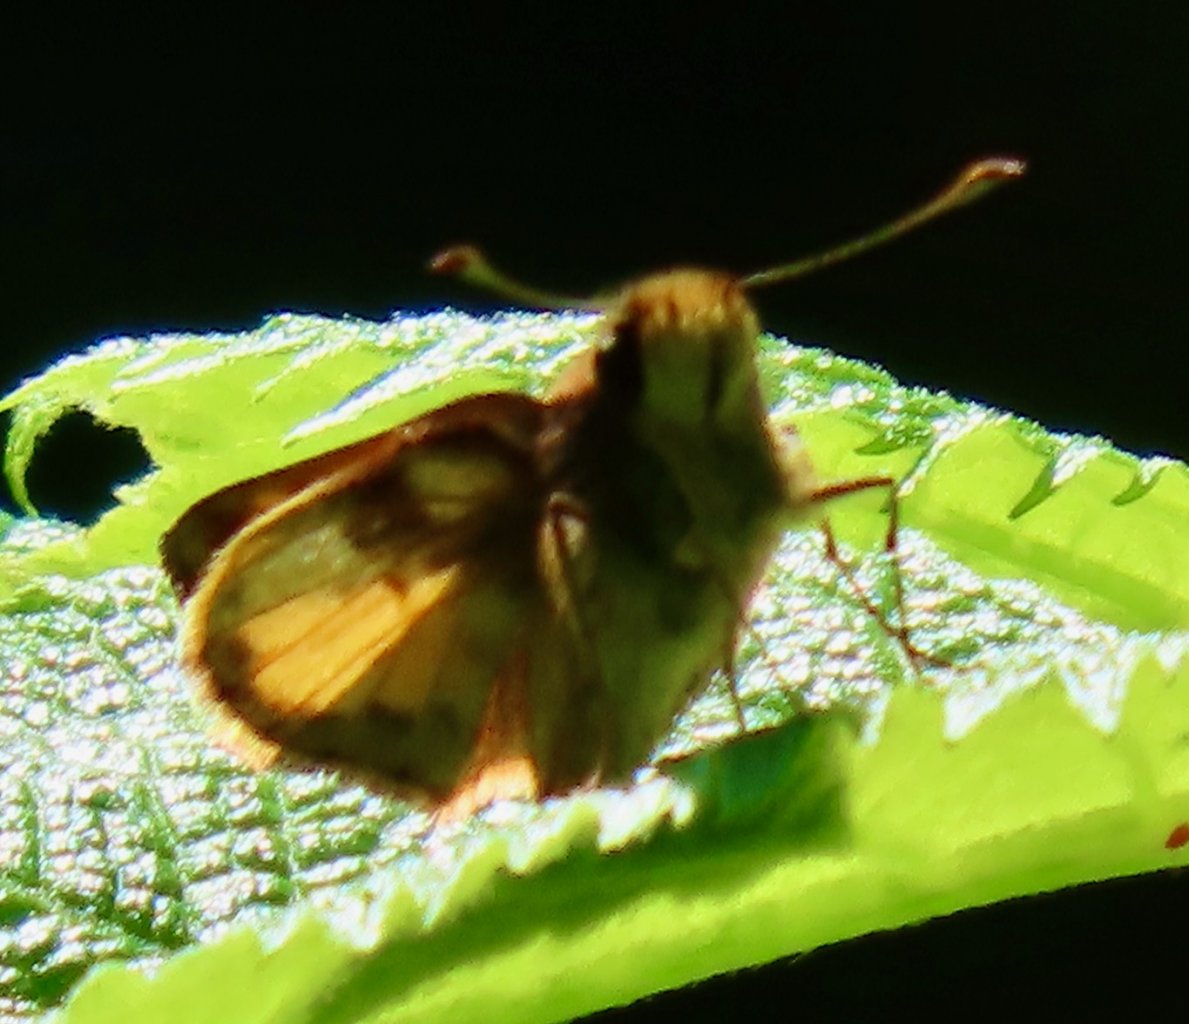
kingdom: Animalia
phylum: Arthropoda
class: Insecta
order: Lepidoptera
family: Hesperiidae
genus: Lon
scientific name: Lon zabulon
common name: Zabulon Skipper
